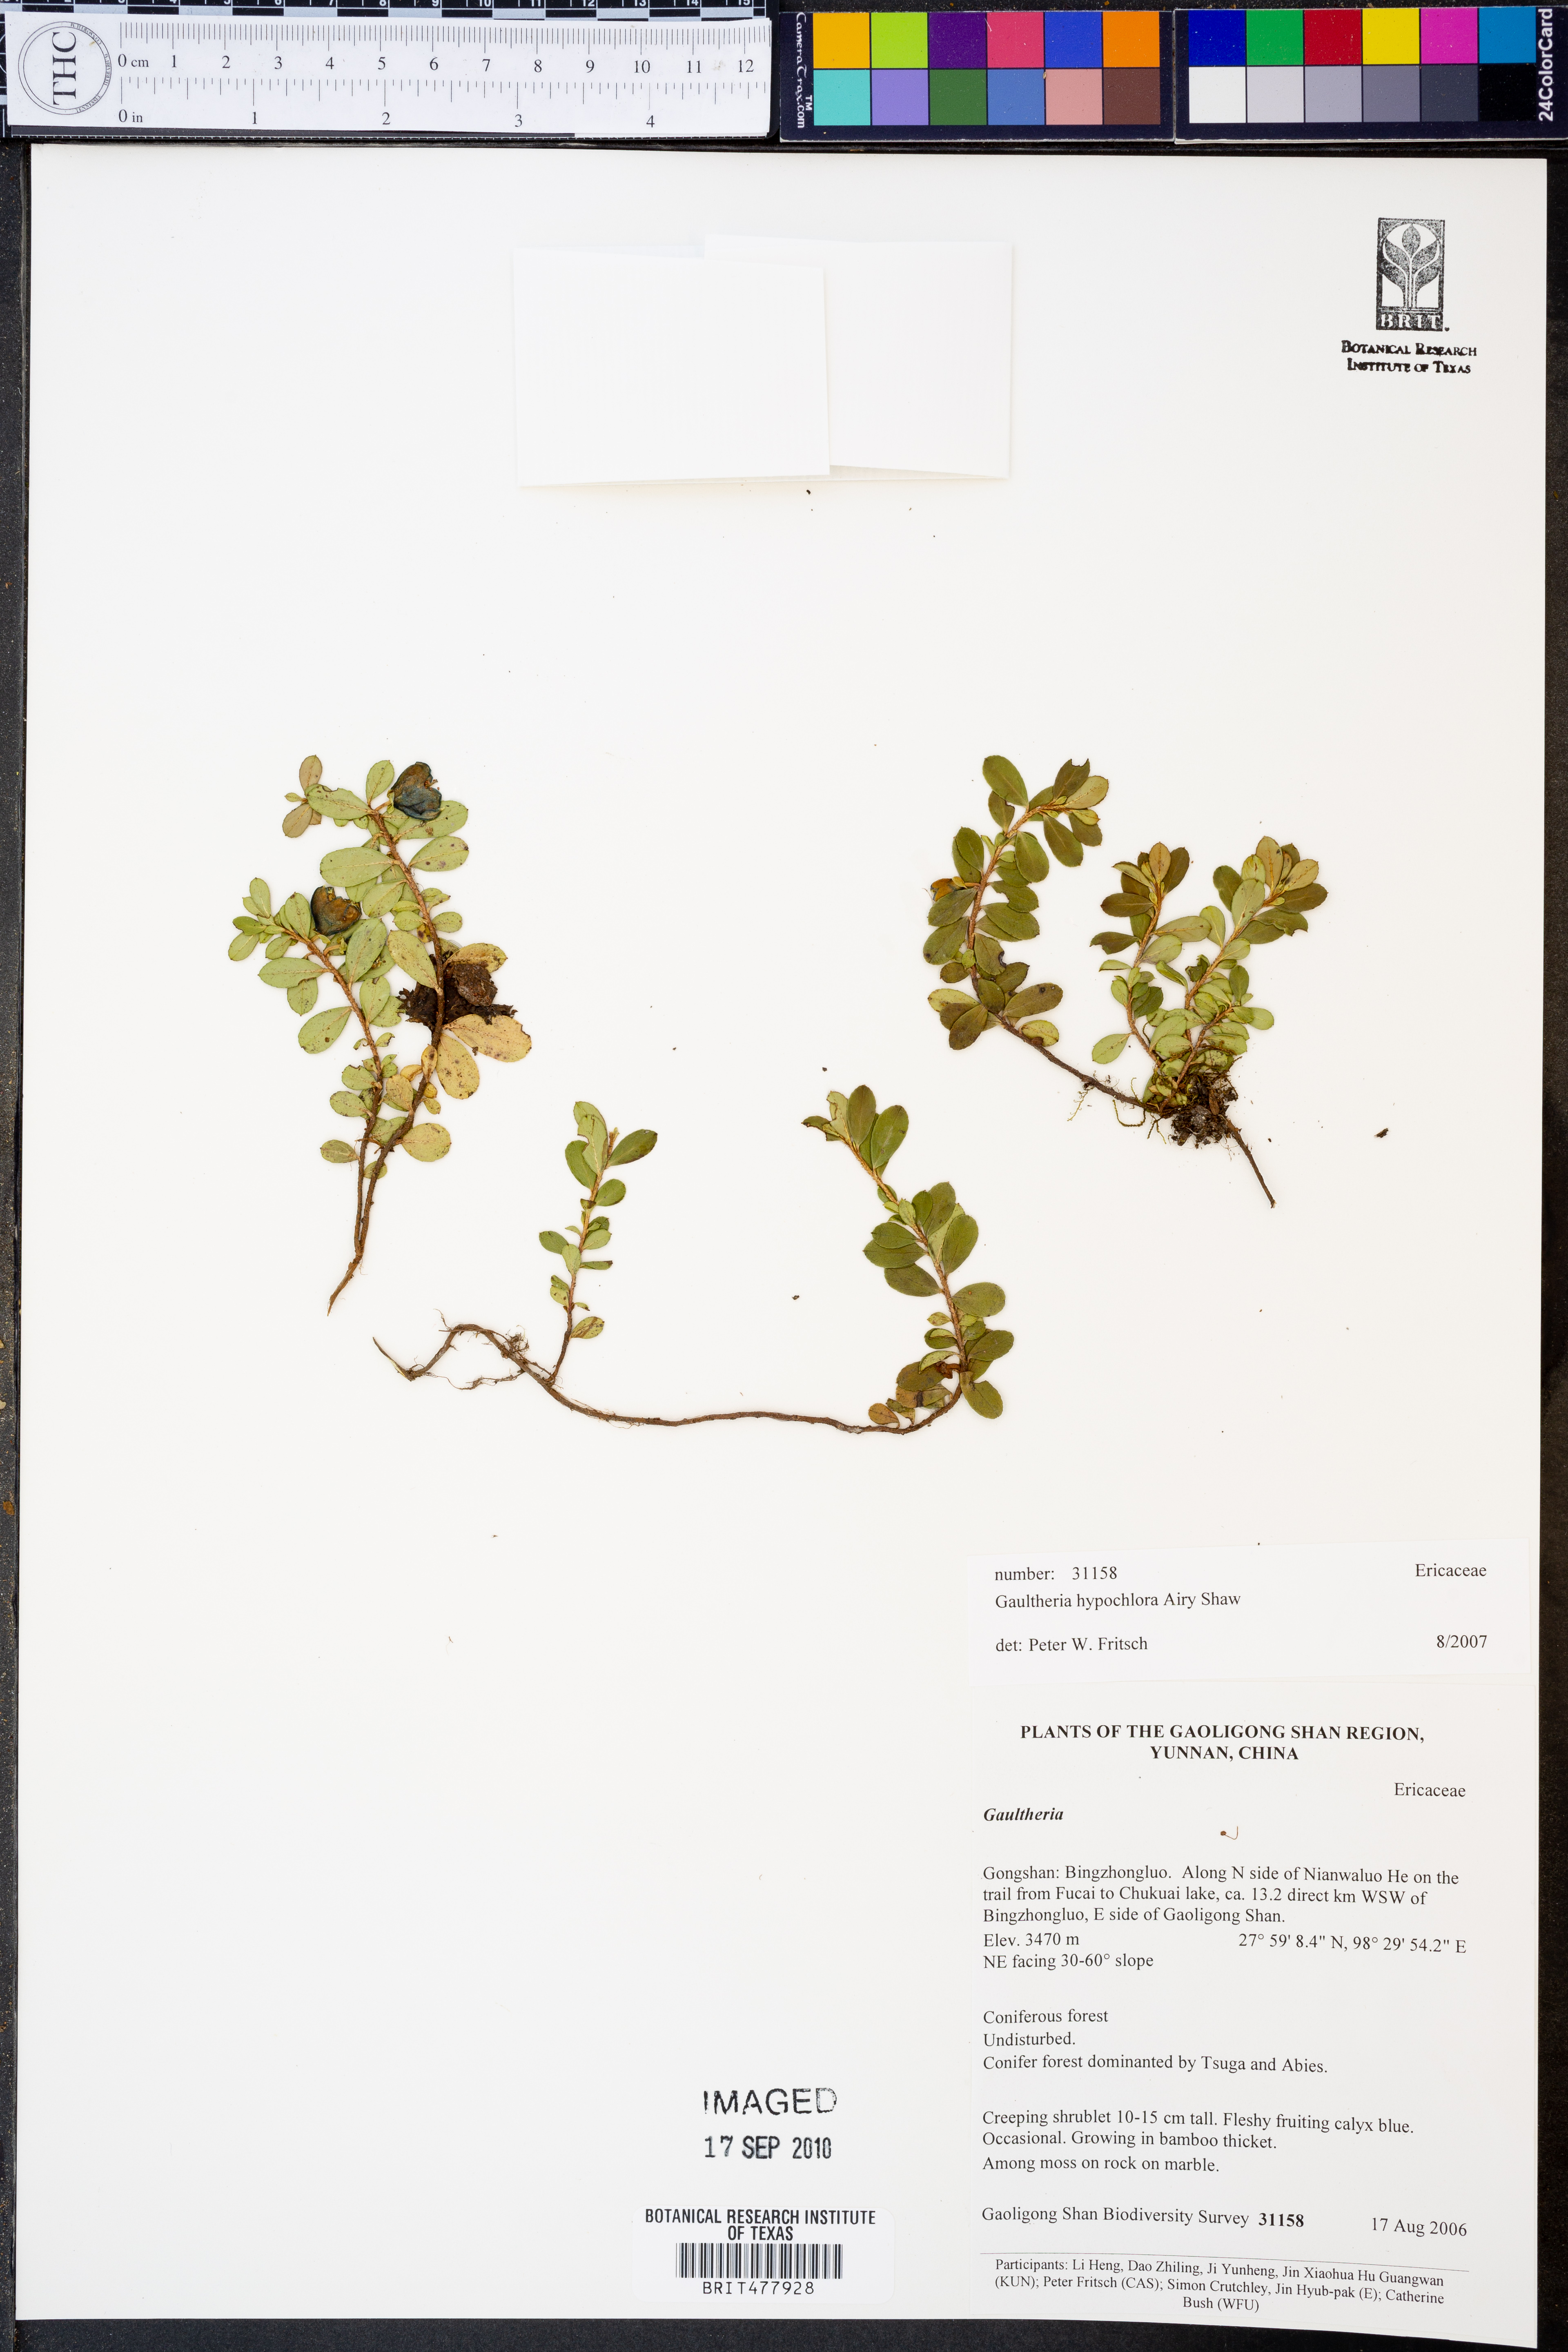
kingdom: Plantae
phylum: Tracheophyta
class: Magnoliopsida
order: Ericales
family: Ericaceae
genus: Gaultheria
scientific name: Gaultheria hypochlora
